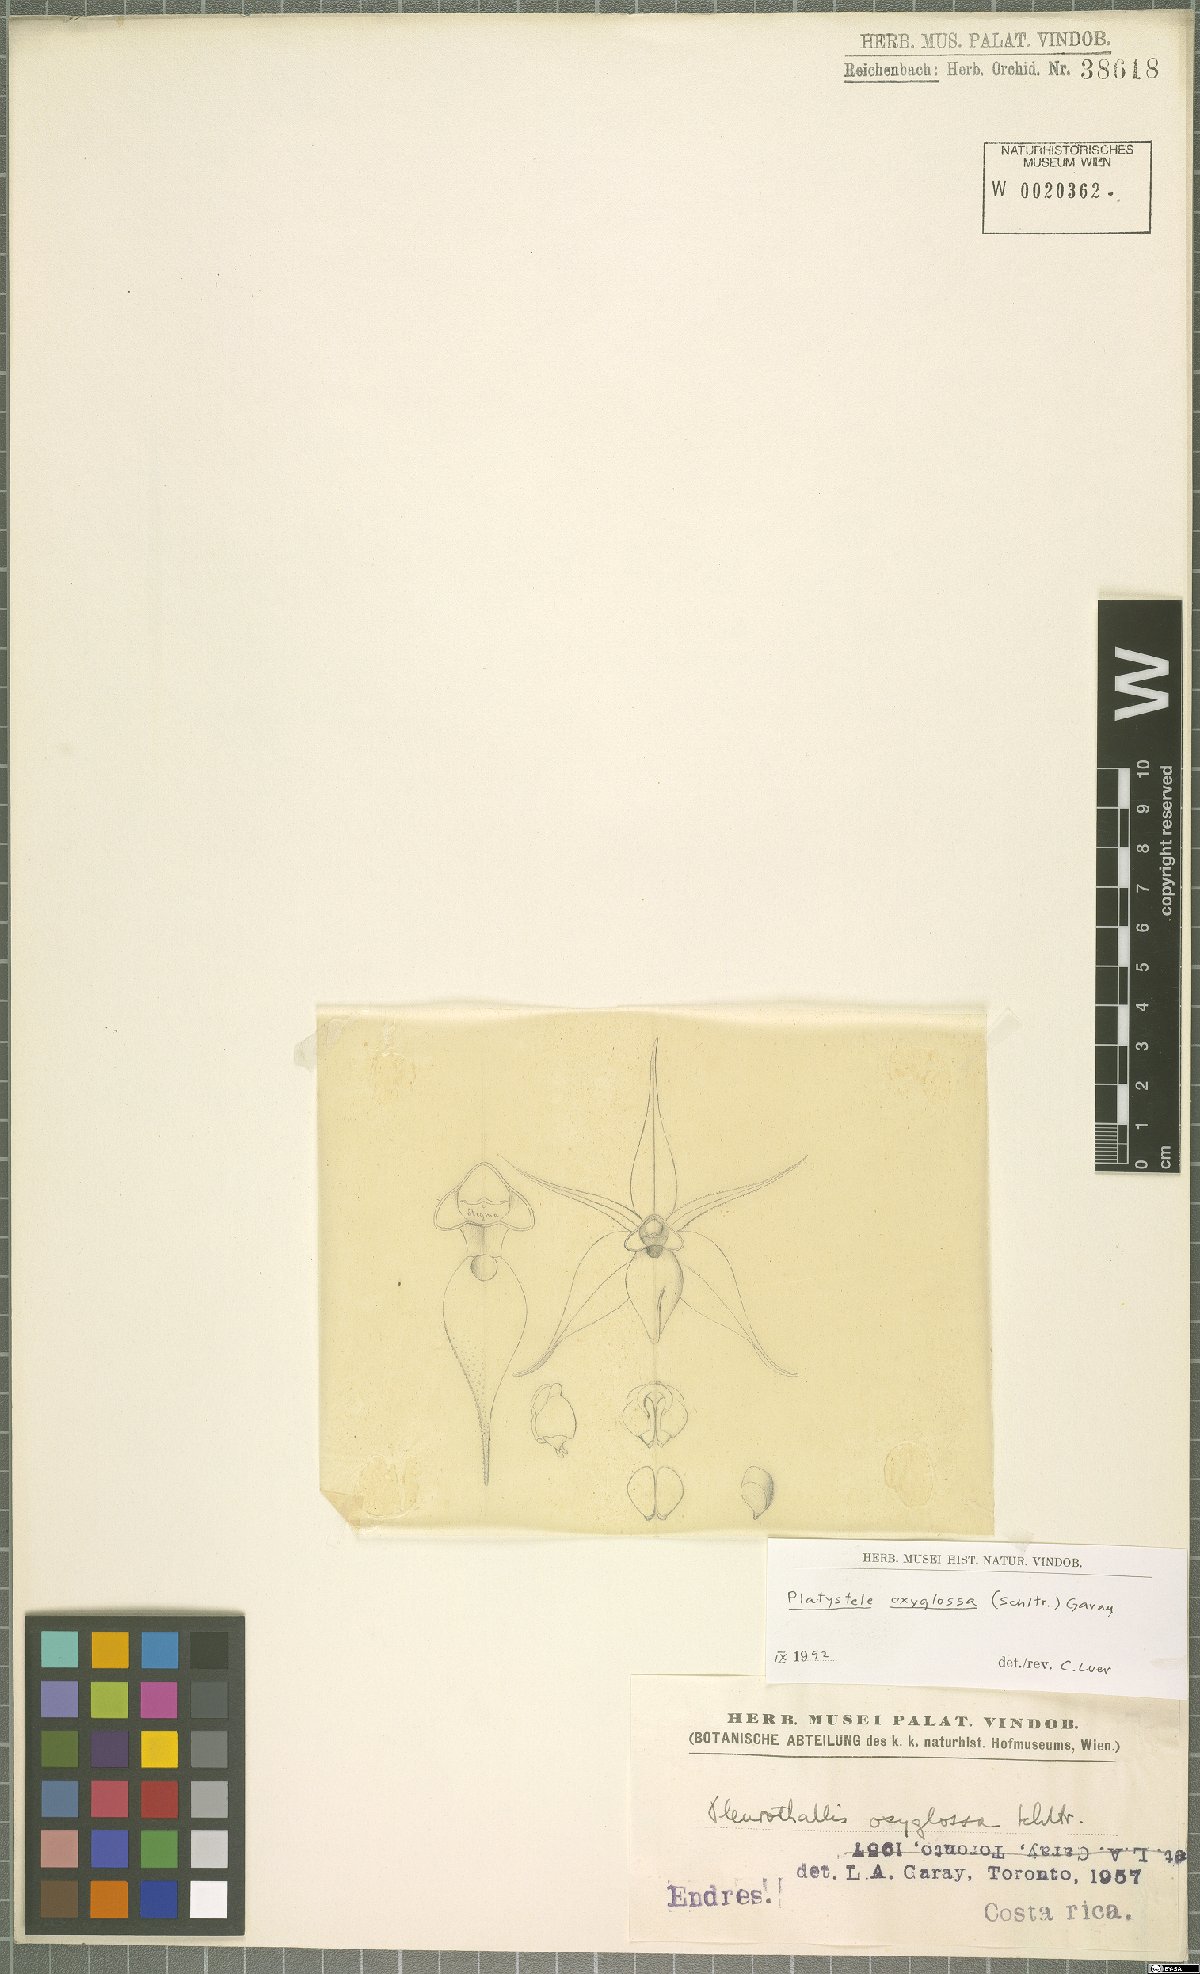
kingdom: Plantae
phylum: Tracheophyta
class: Liliopsida
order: Asparagales
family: Orchidaceae
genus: Platystele
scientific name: Platystele oxyglossa
